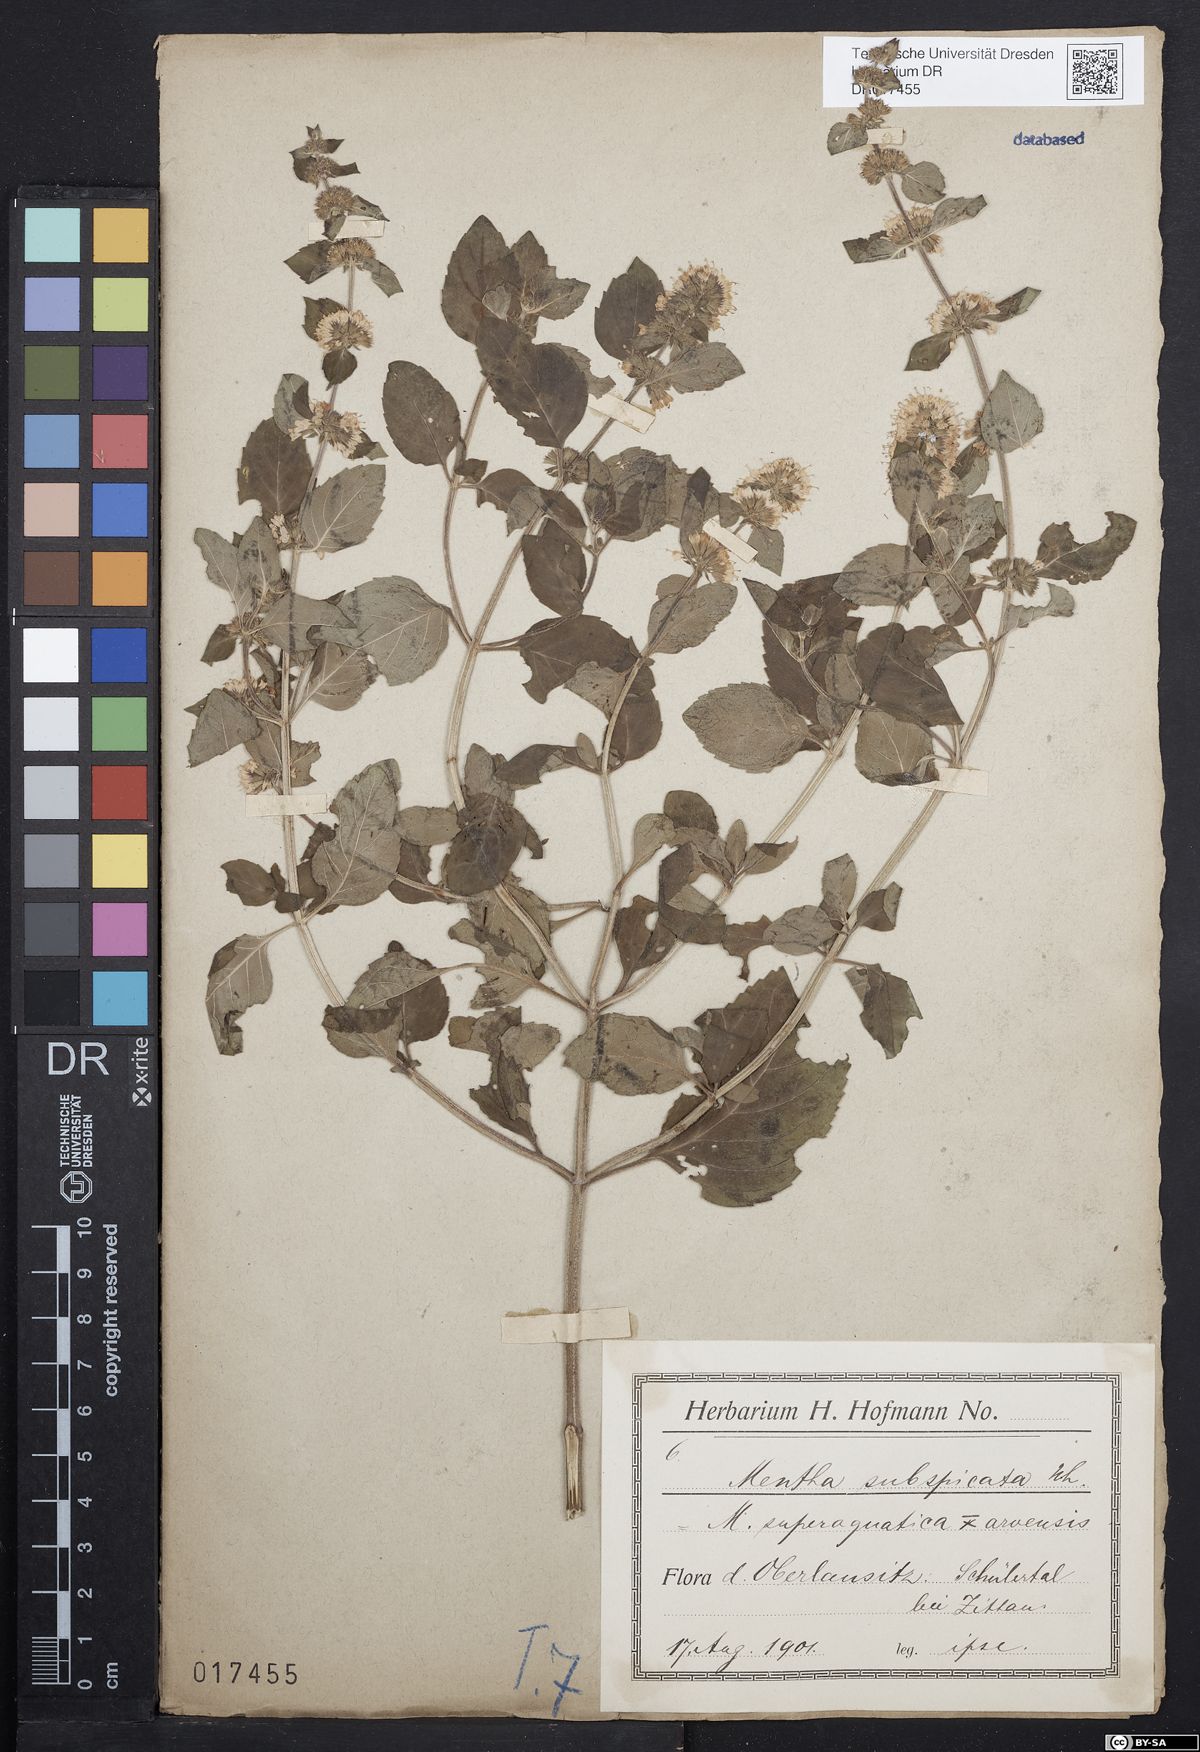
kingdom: Plantae
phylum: Tracheophyta
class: Magnoliopsida
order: Lamiales
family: Lamiaceae
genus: Mentha
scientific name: Mentha aquatica
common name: Water mint
